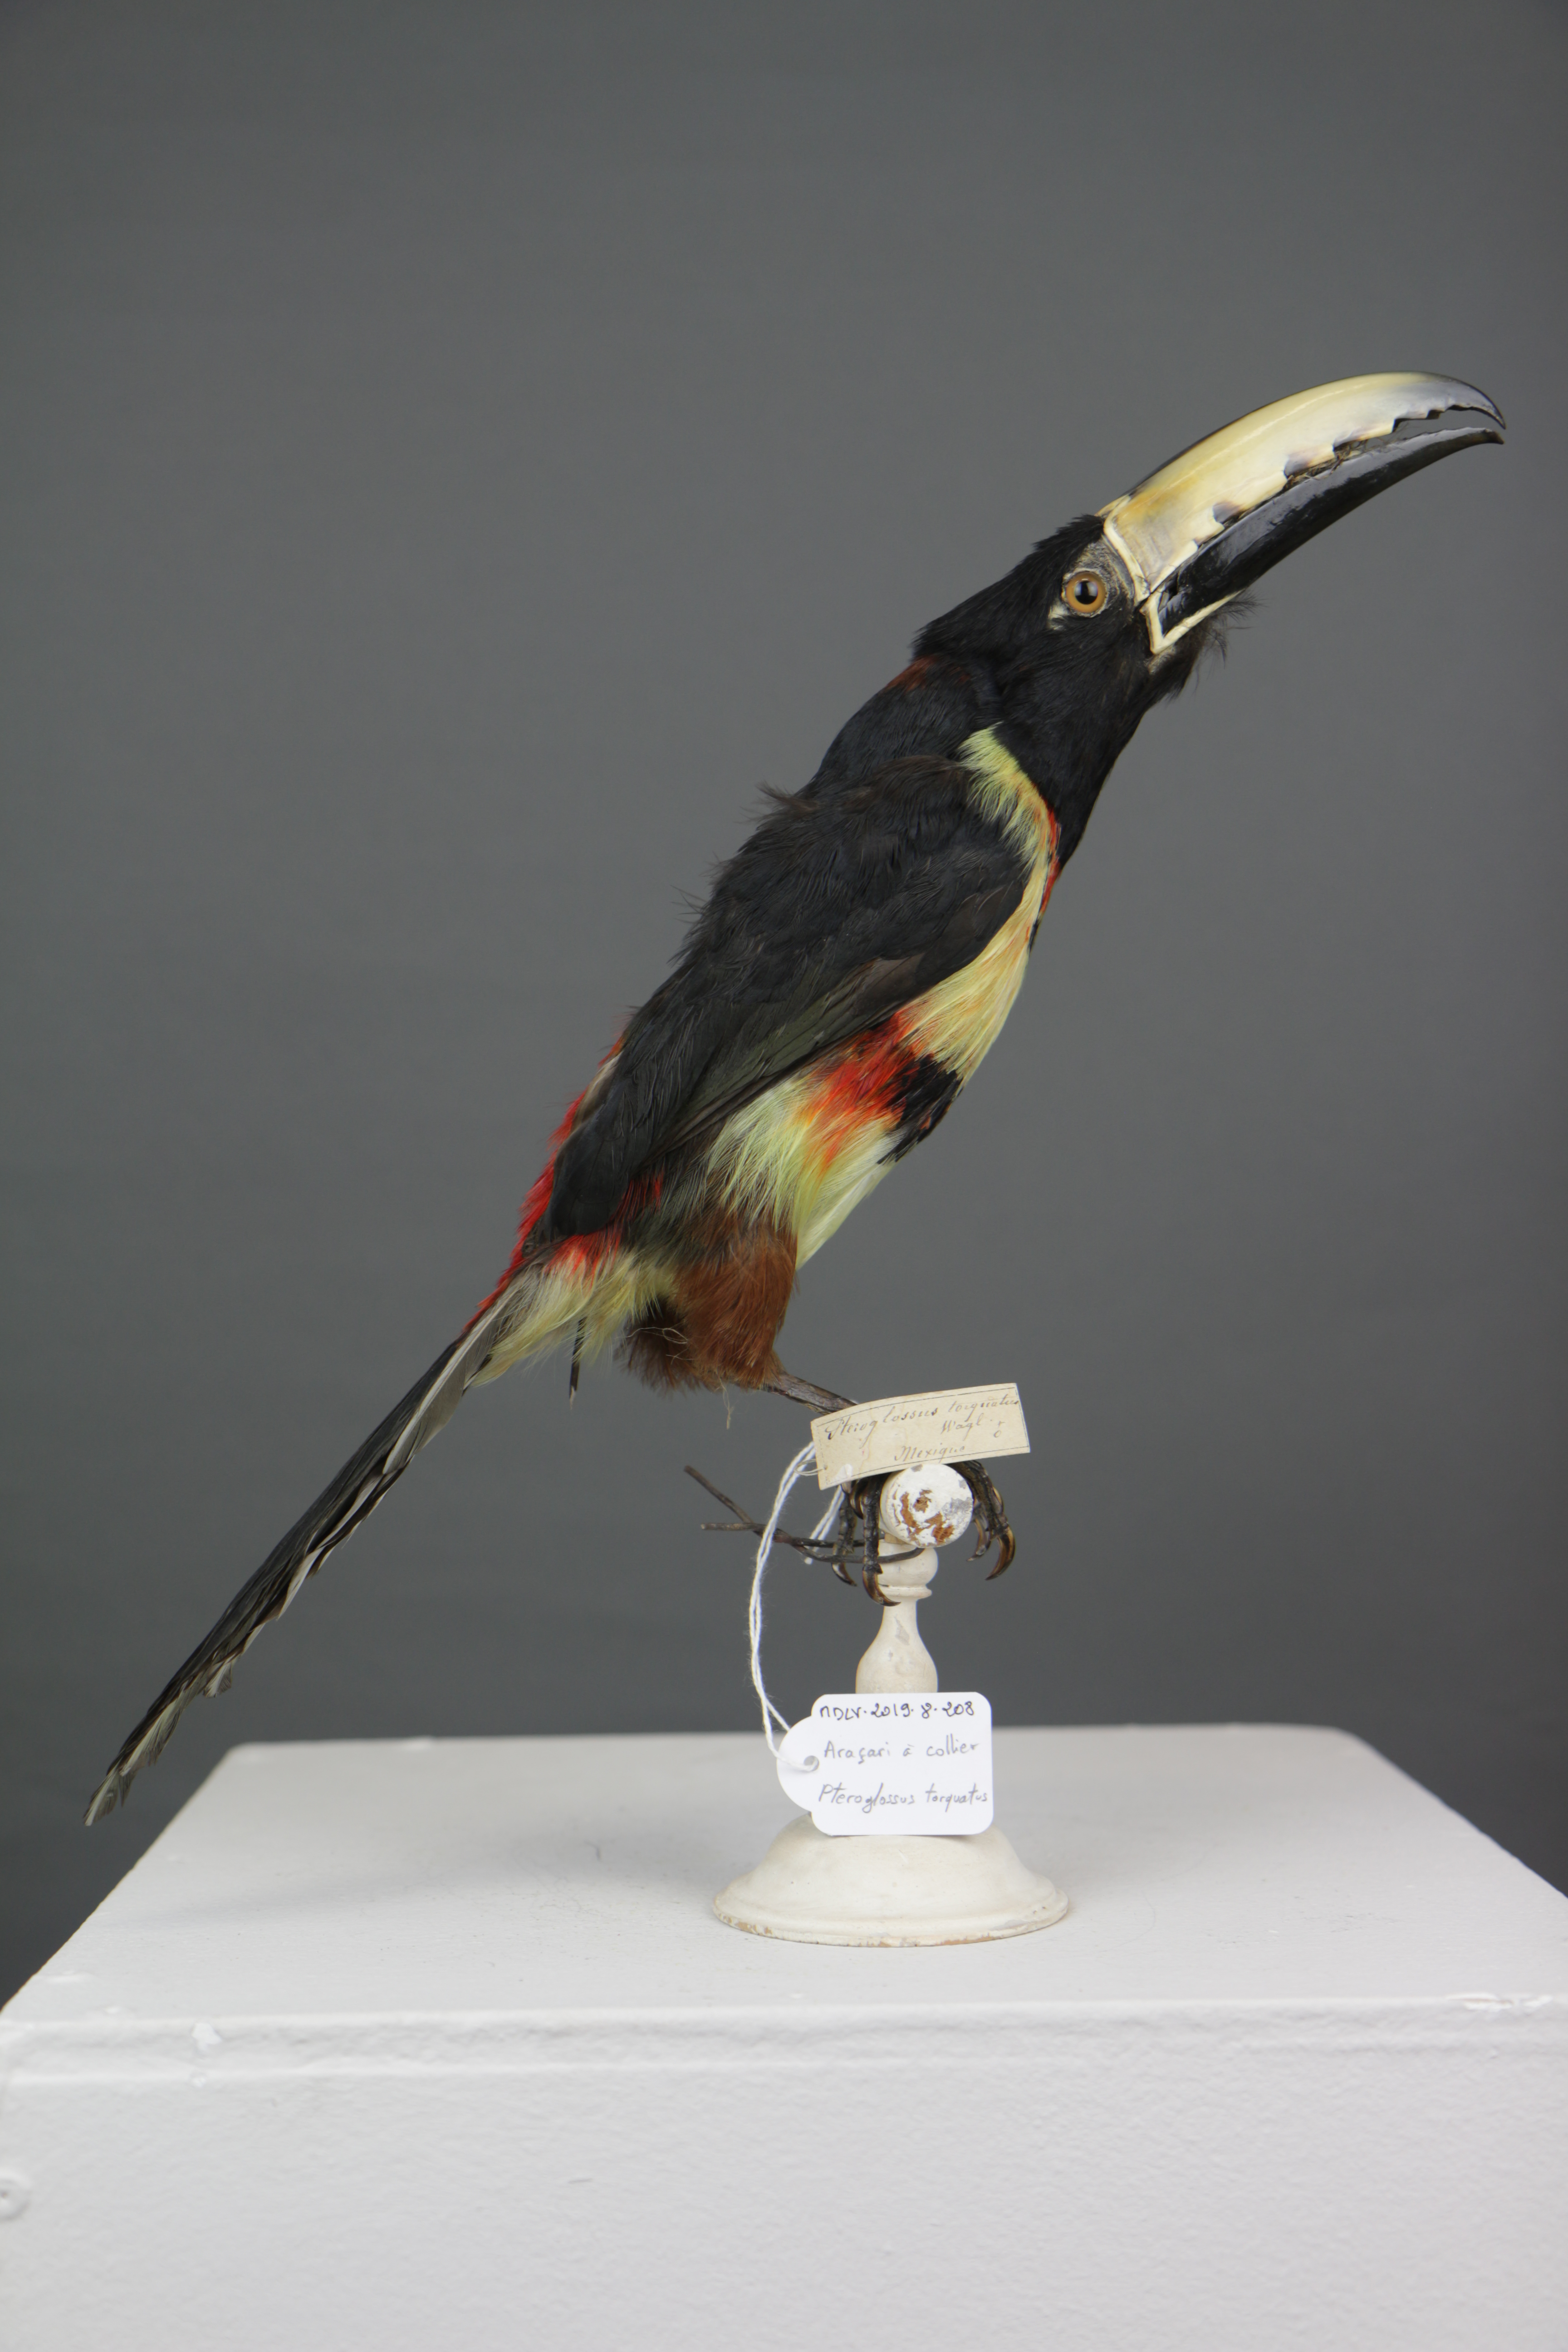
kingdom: Animalia
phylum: Chordata
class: Aves
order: Piciformes
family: Ramphastidae
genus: Pteroglossus
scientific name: Pteroglossus torquatus
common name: Collared aracari
